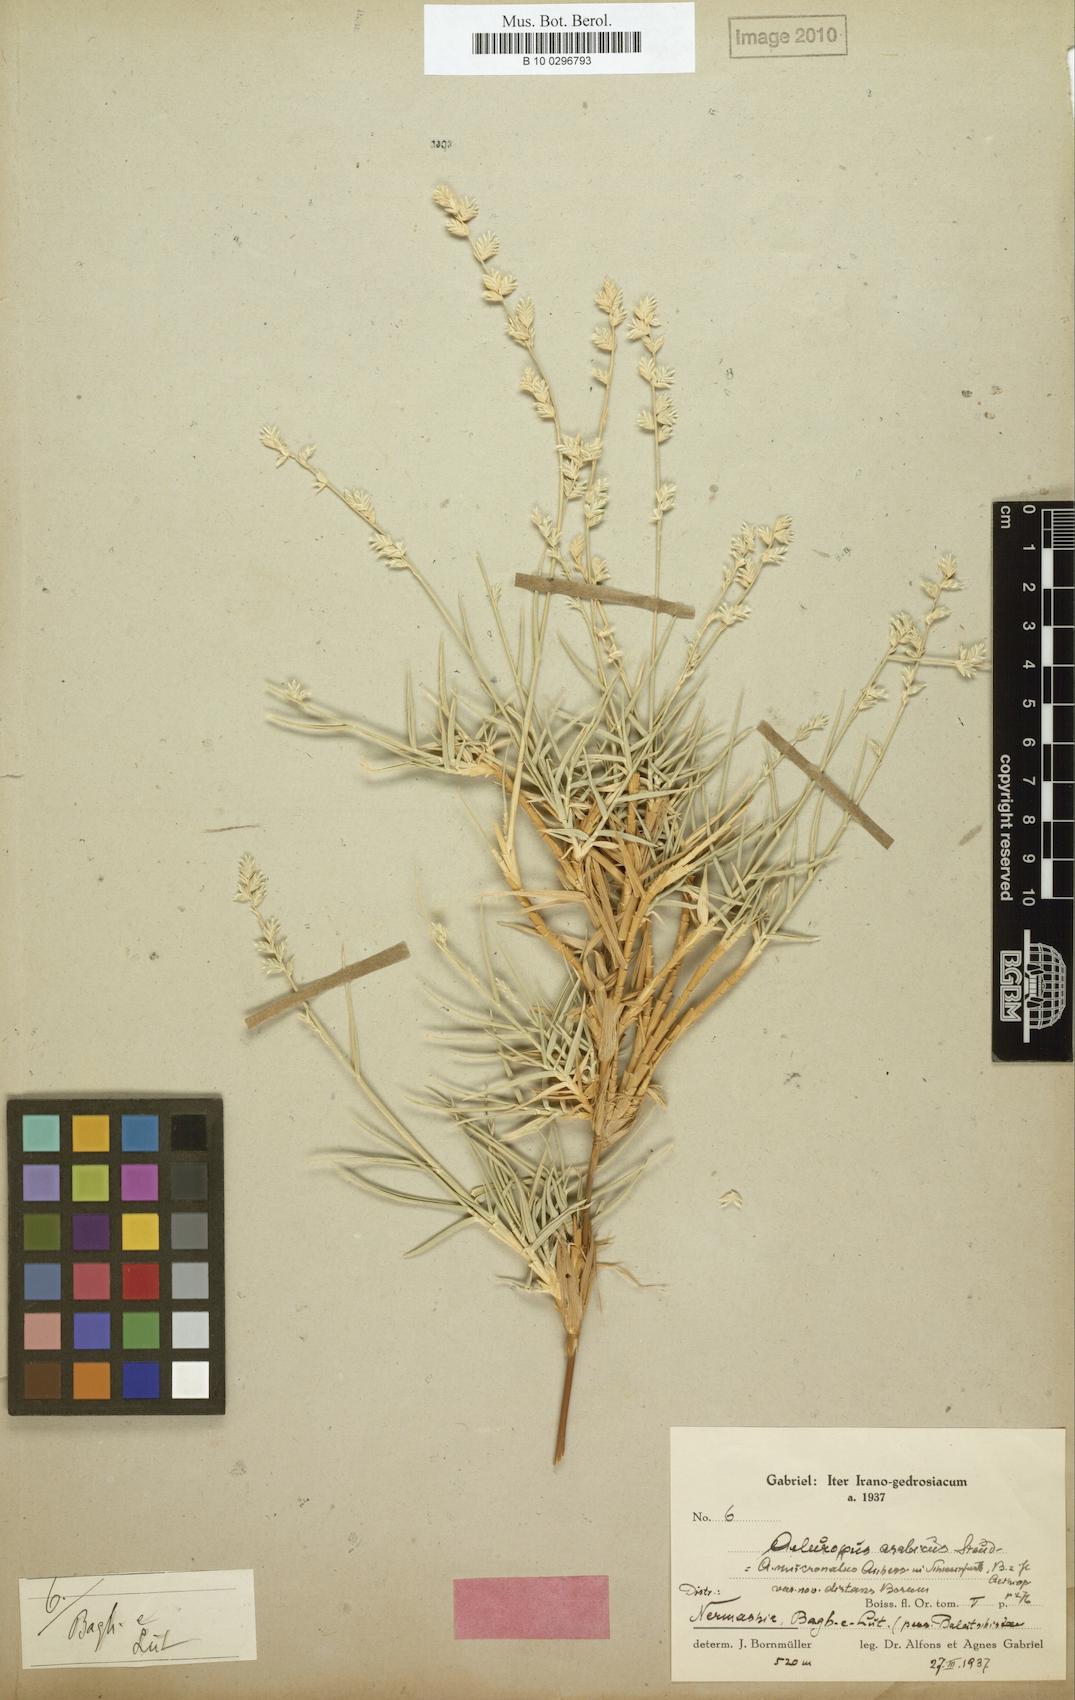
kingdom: Plantae
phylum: Tracheophyta
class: Liliopsida
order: Poales
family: Poaceae
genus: Aeluropus
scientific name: Aeluropus macrostachyus
